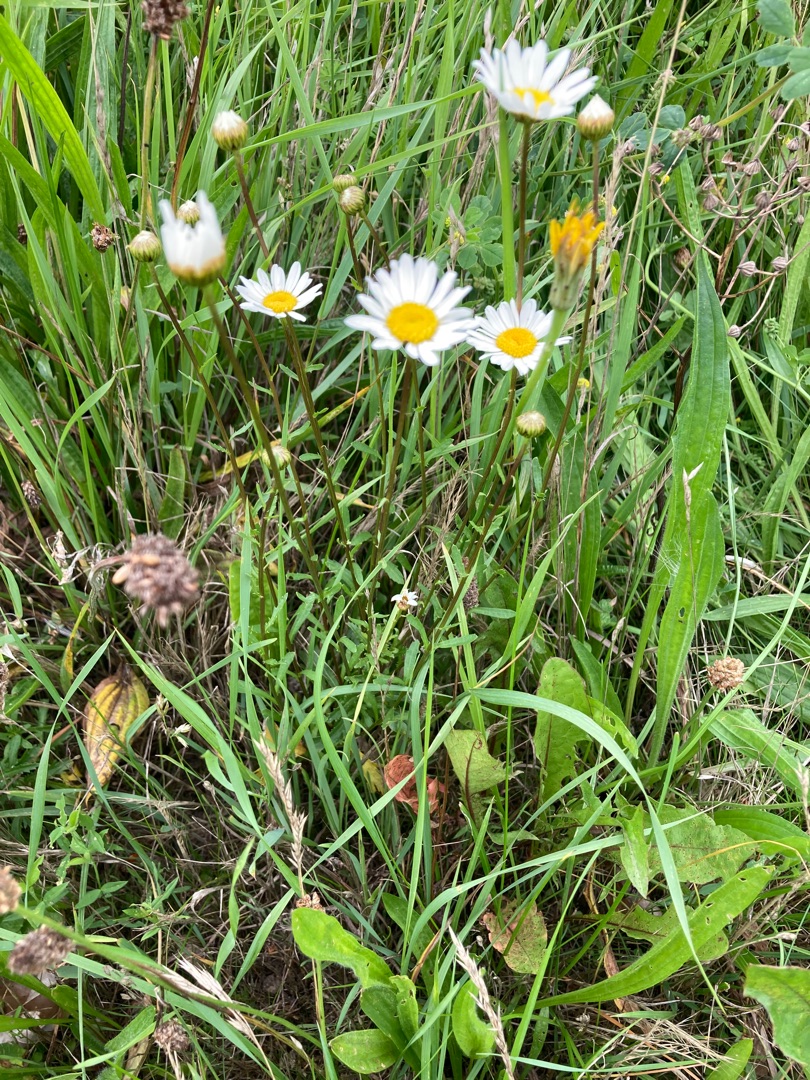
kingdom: Plantae
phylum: Tracheophyta
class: Magnoliopsida
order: Asterales
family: Asteraceae
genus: Leucanthemum
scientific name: Leucanthemum vulgare
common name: Hvid okseøje
